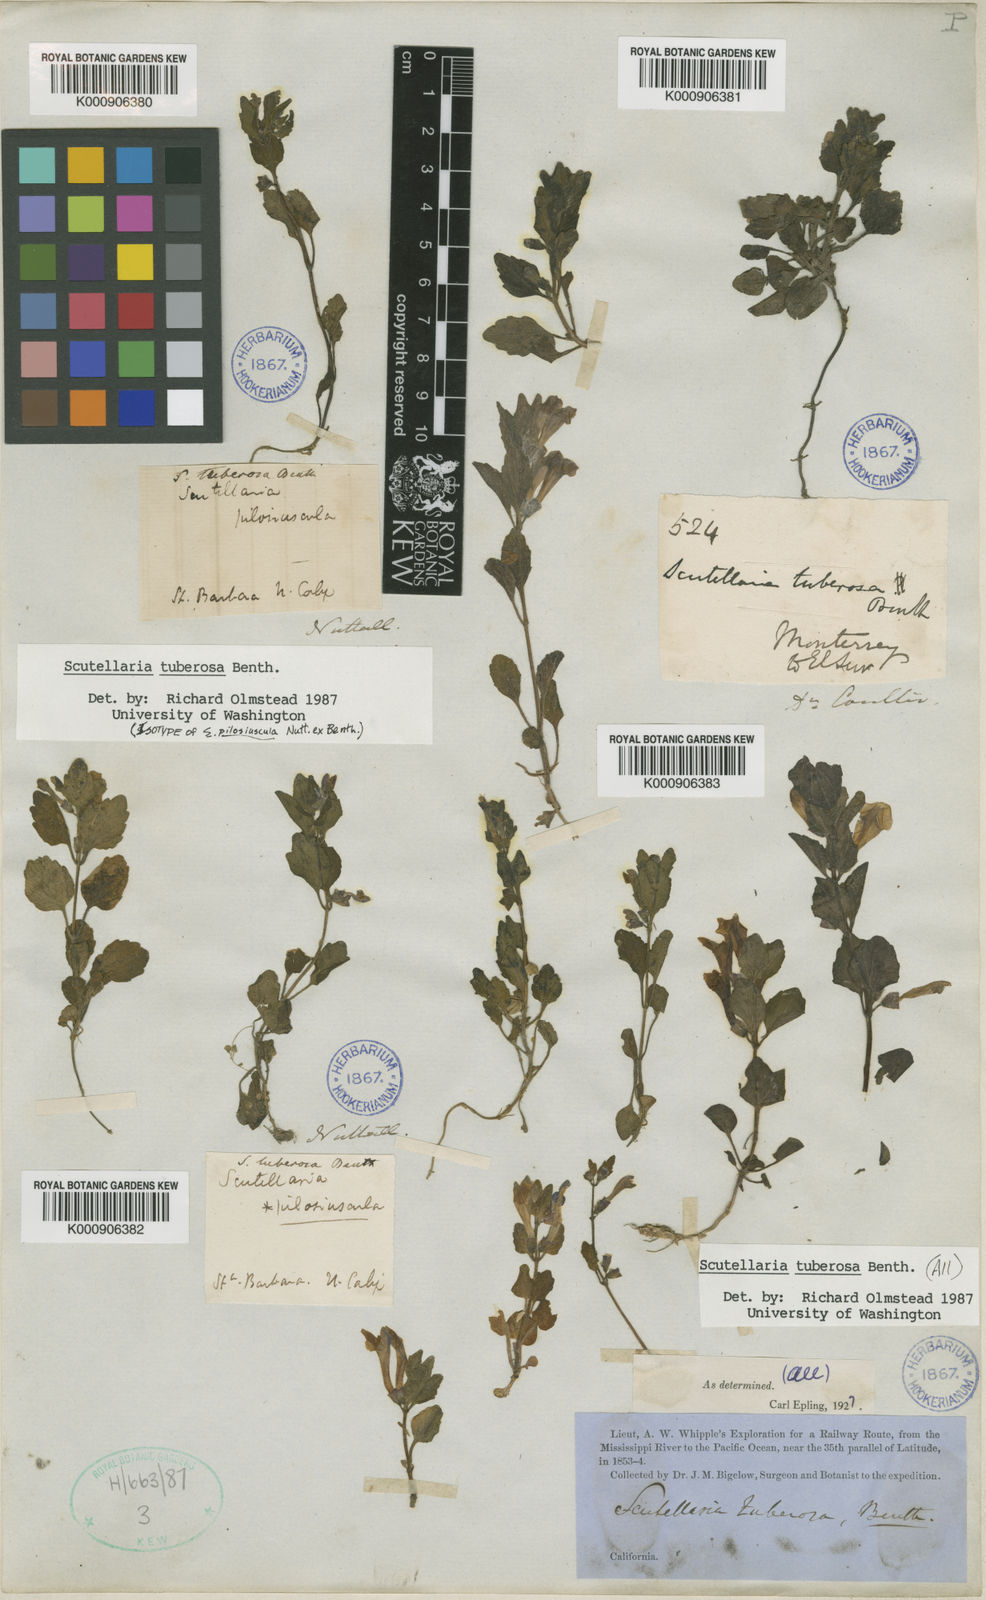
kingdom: Plantae
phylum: Tracheophyta
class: Magnoliopsida
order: Lamiales
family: Lamiaceae
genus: Scutellaria
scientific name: Scutellaria tuberosa
